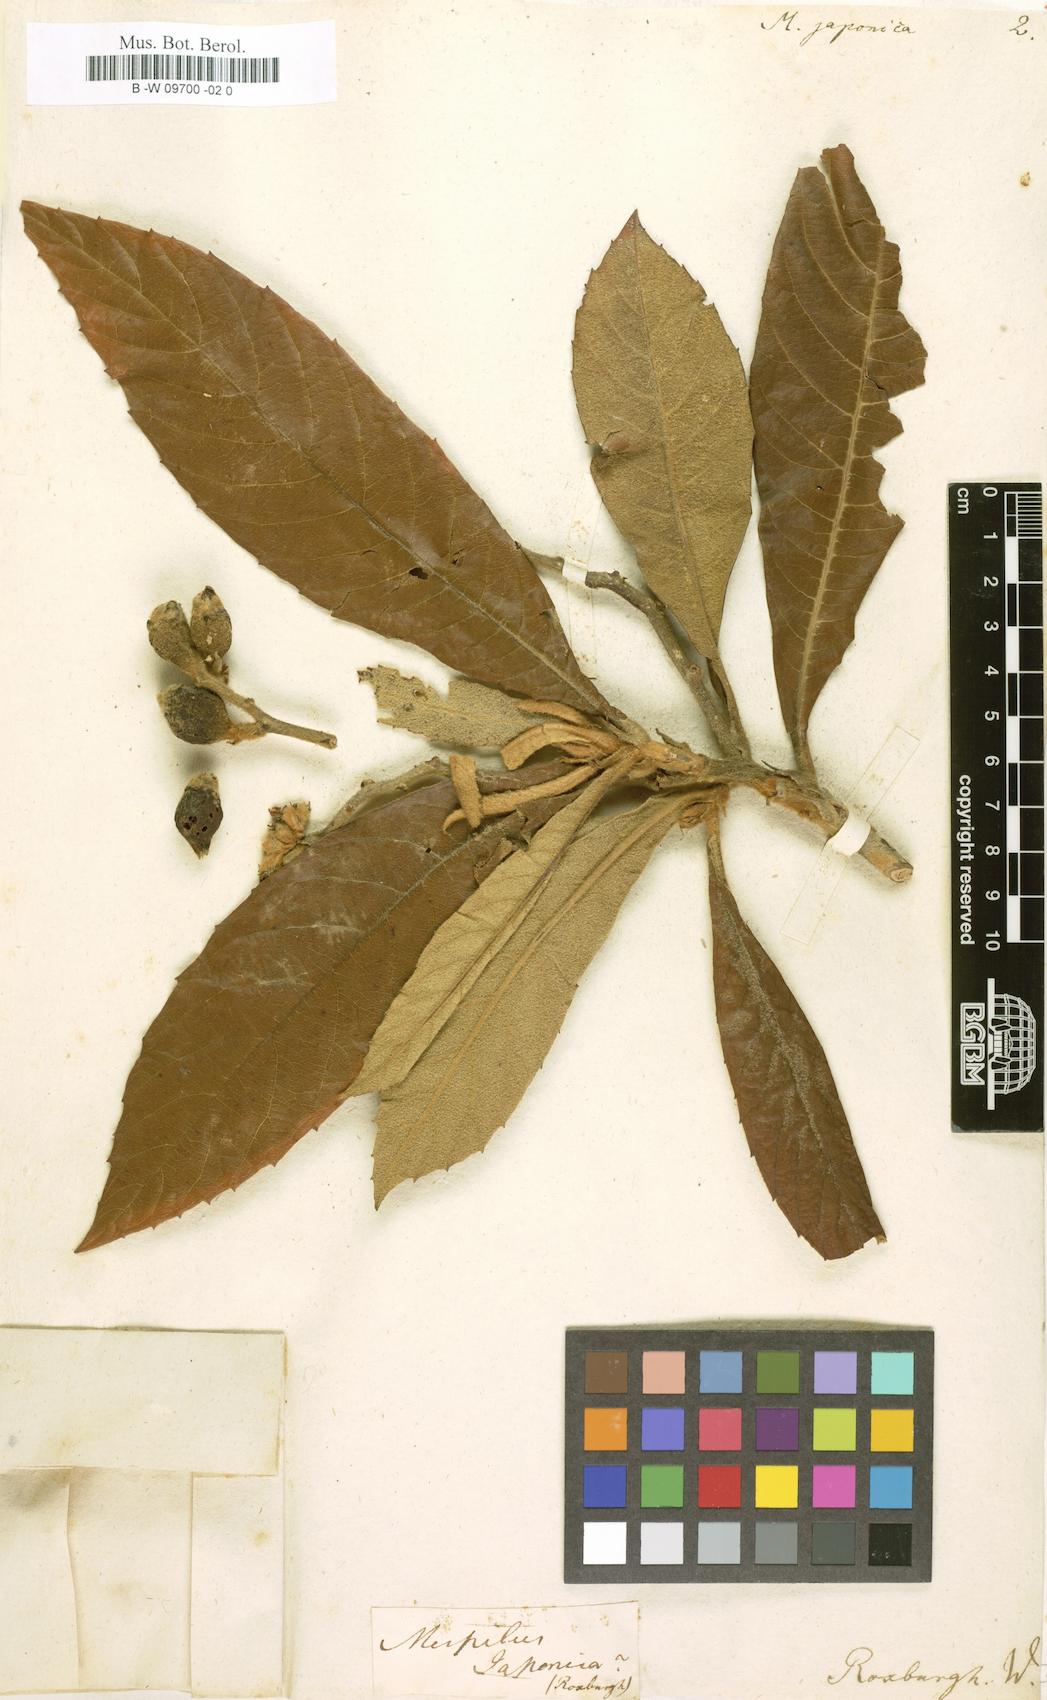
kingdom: Plantae
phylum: Tracheophyta
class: Magnoliopsida
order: Rosales
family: Rosaceae
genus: Rhaphiolepis
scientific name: Rhaphiolepis bibas
